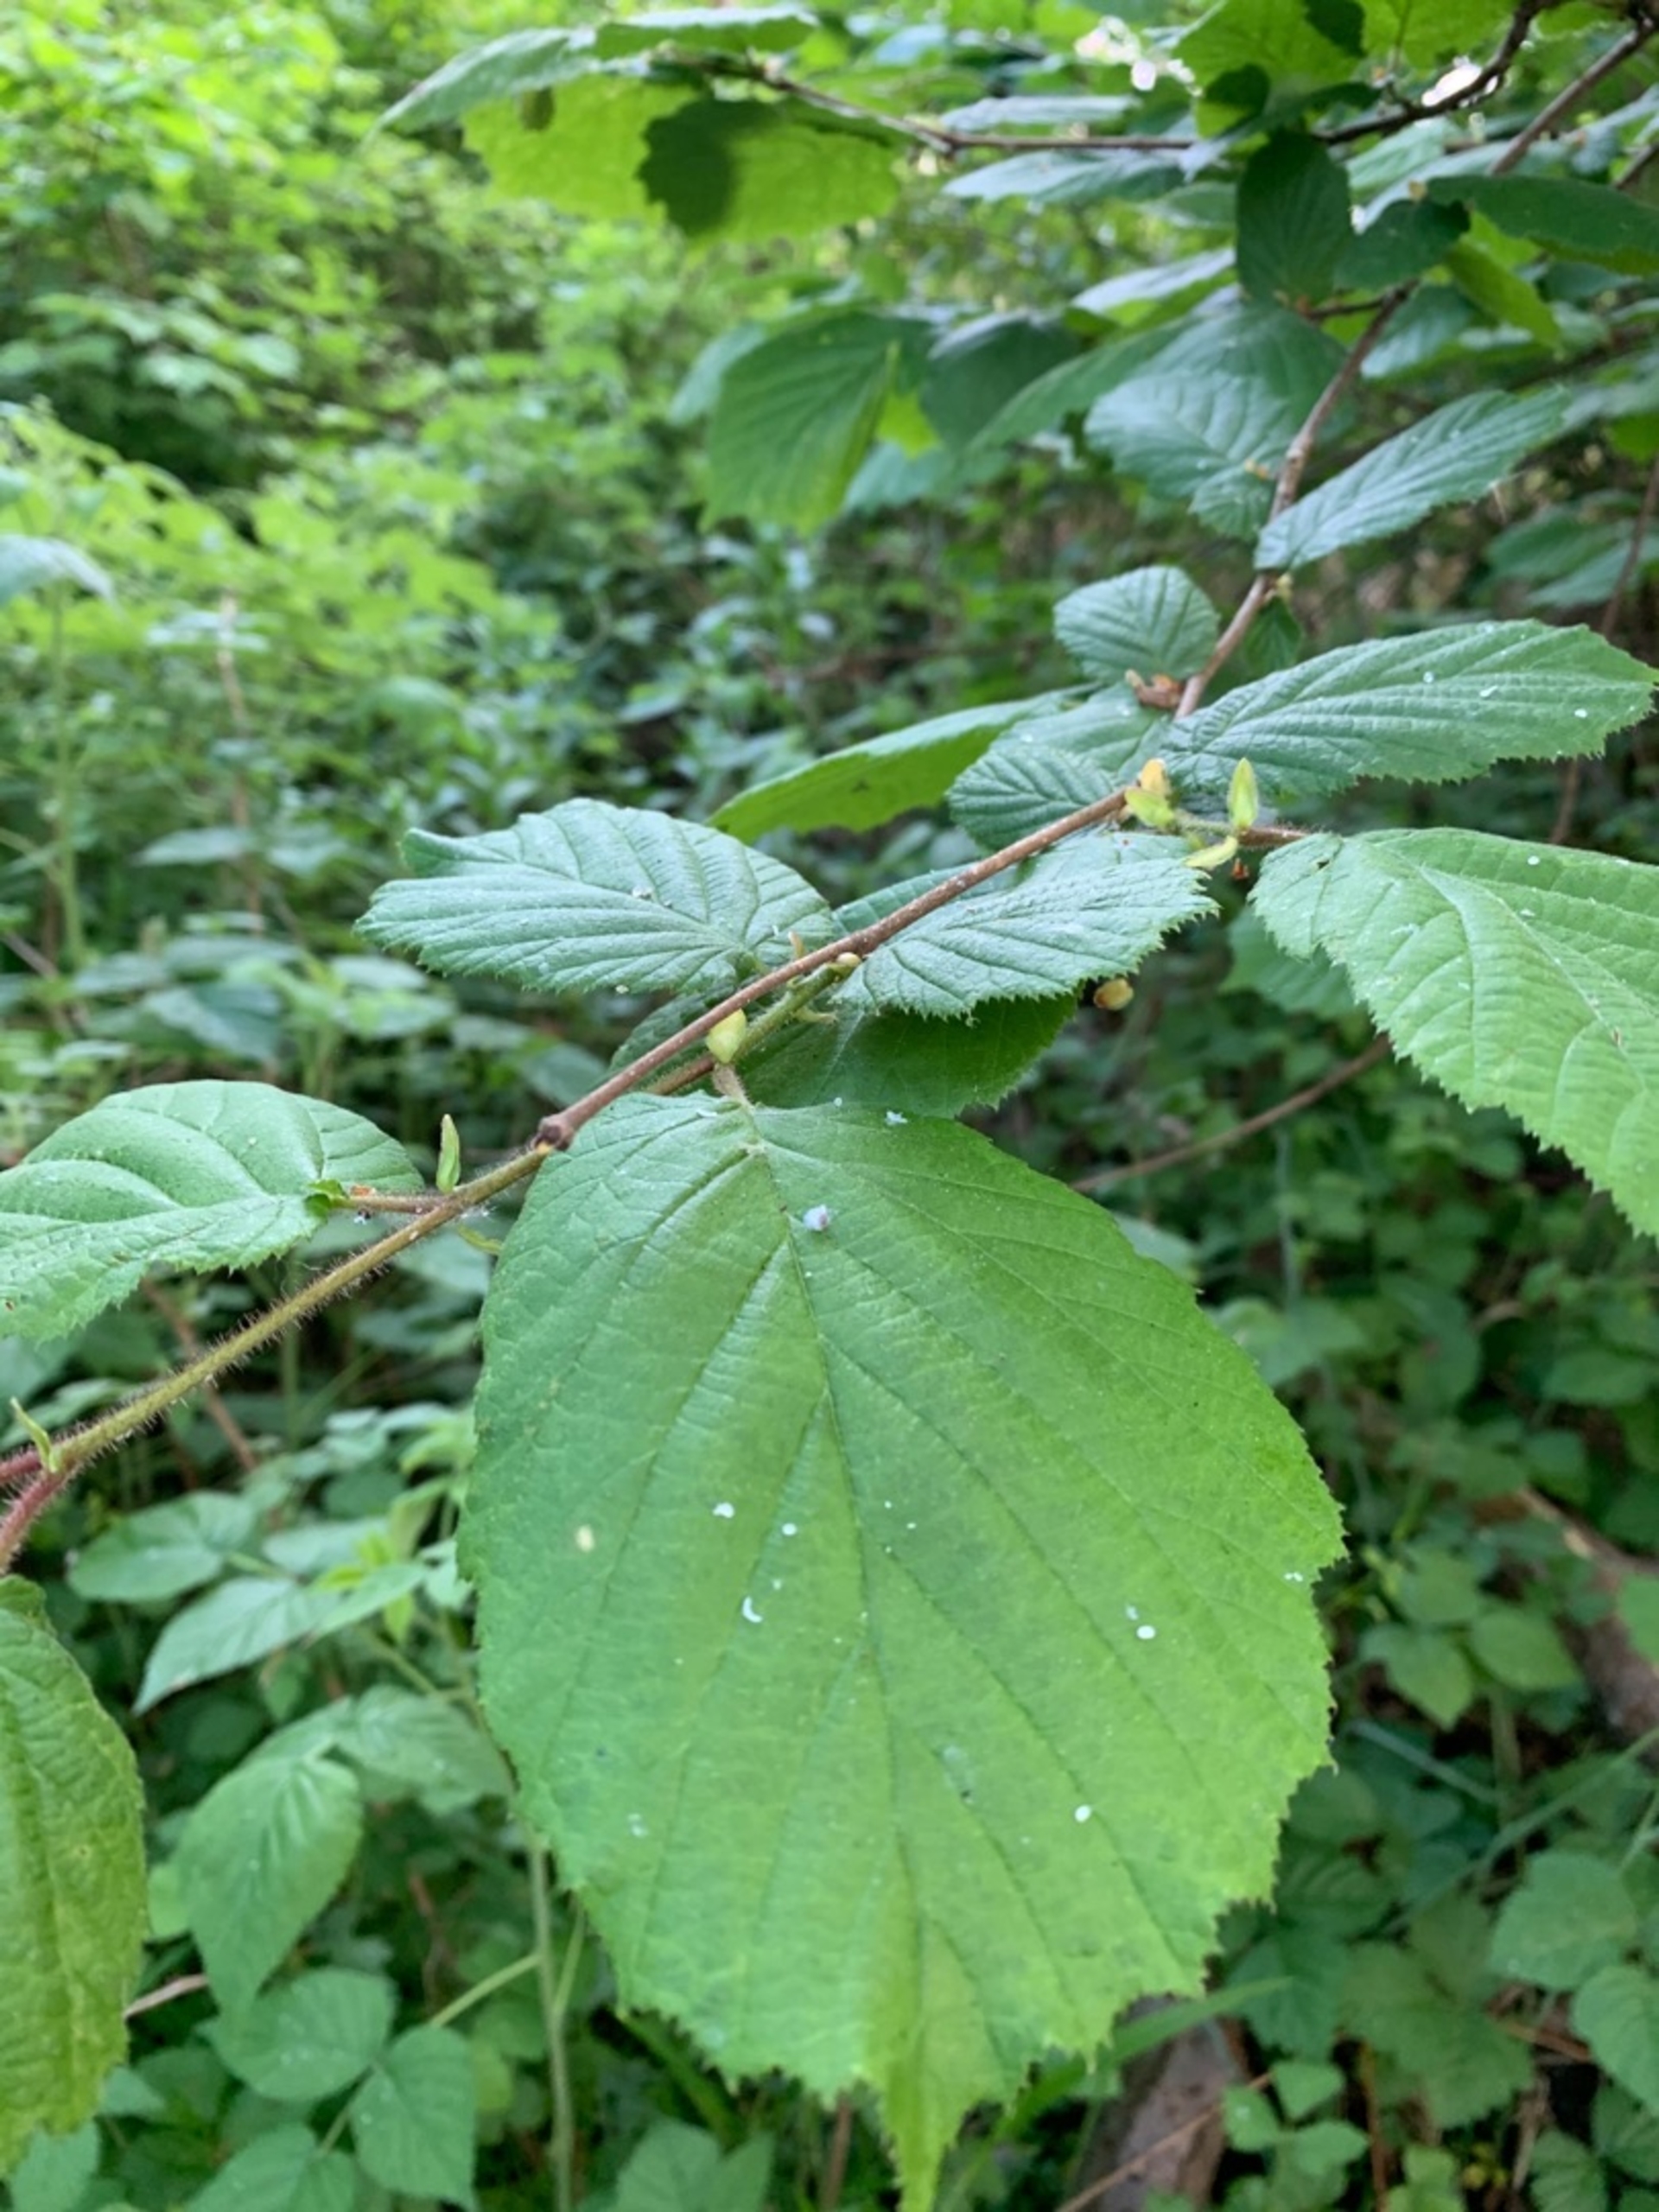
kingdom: Plantae
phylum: Tracheophyta
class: Magnoliopsida
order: Fagales
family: Betulaceae
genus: Corylus
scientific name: Corylus avellana
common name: Hassel
